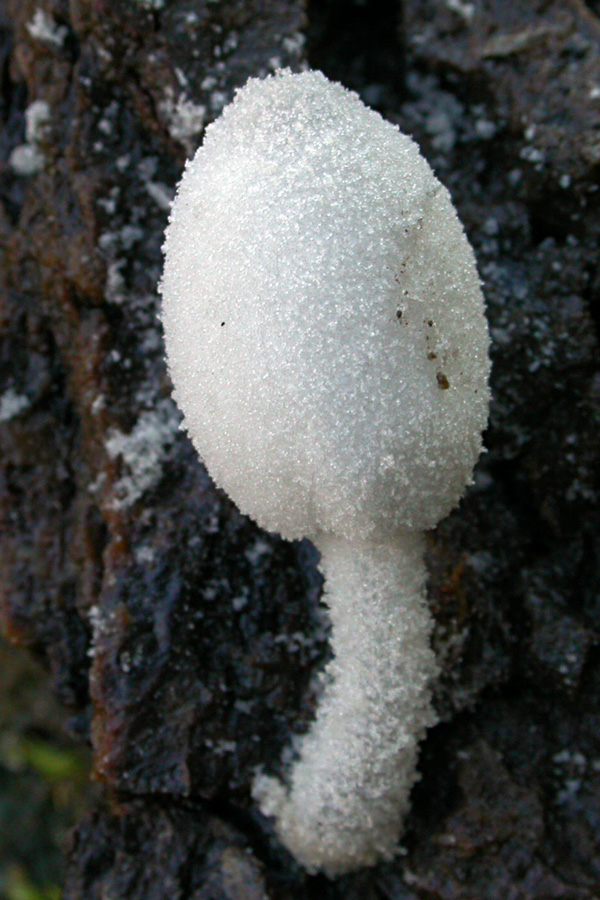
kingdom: Fungi
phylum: Basidiomycota
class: Agaricomycetes
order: Agaricales
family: Psathyrellaceae
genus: Coprinopsis
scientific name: Coprinopsis laanii
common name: stub-blækhat
